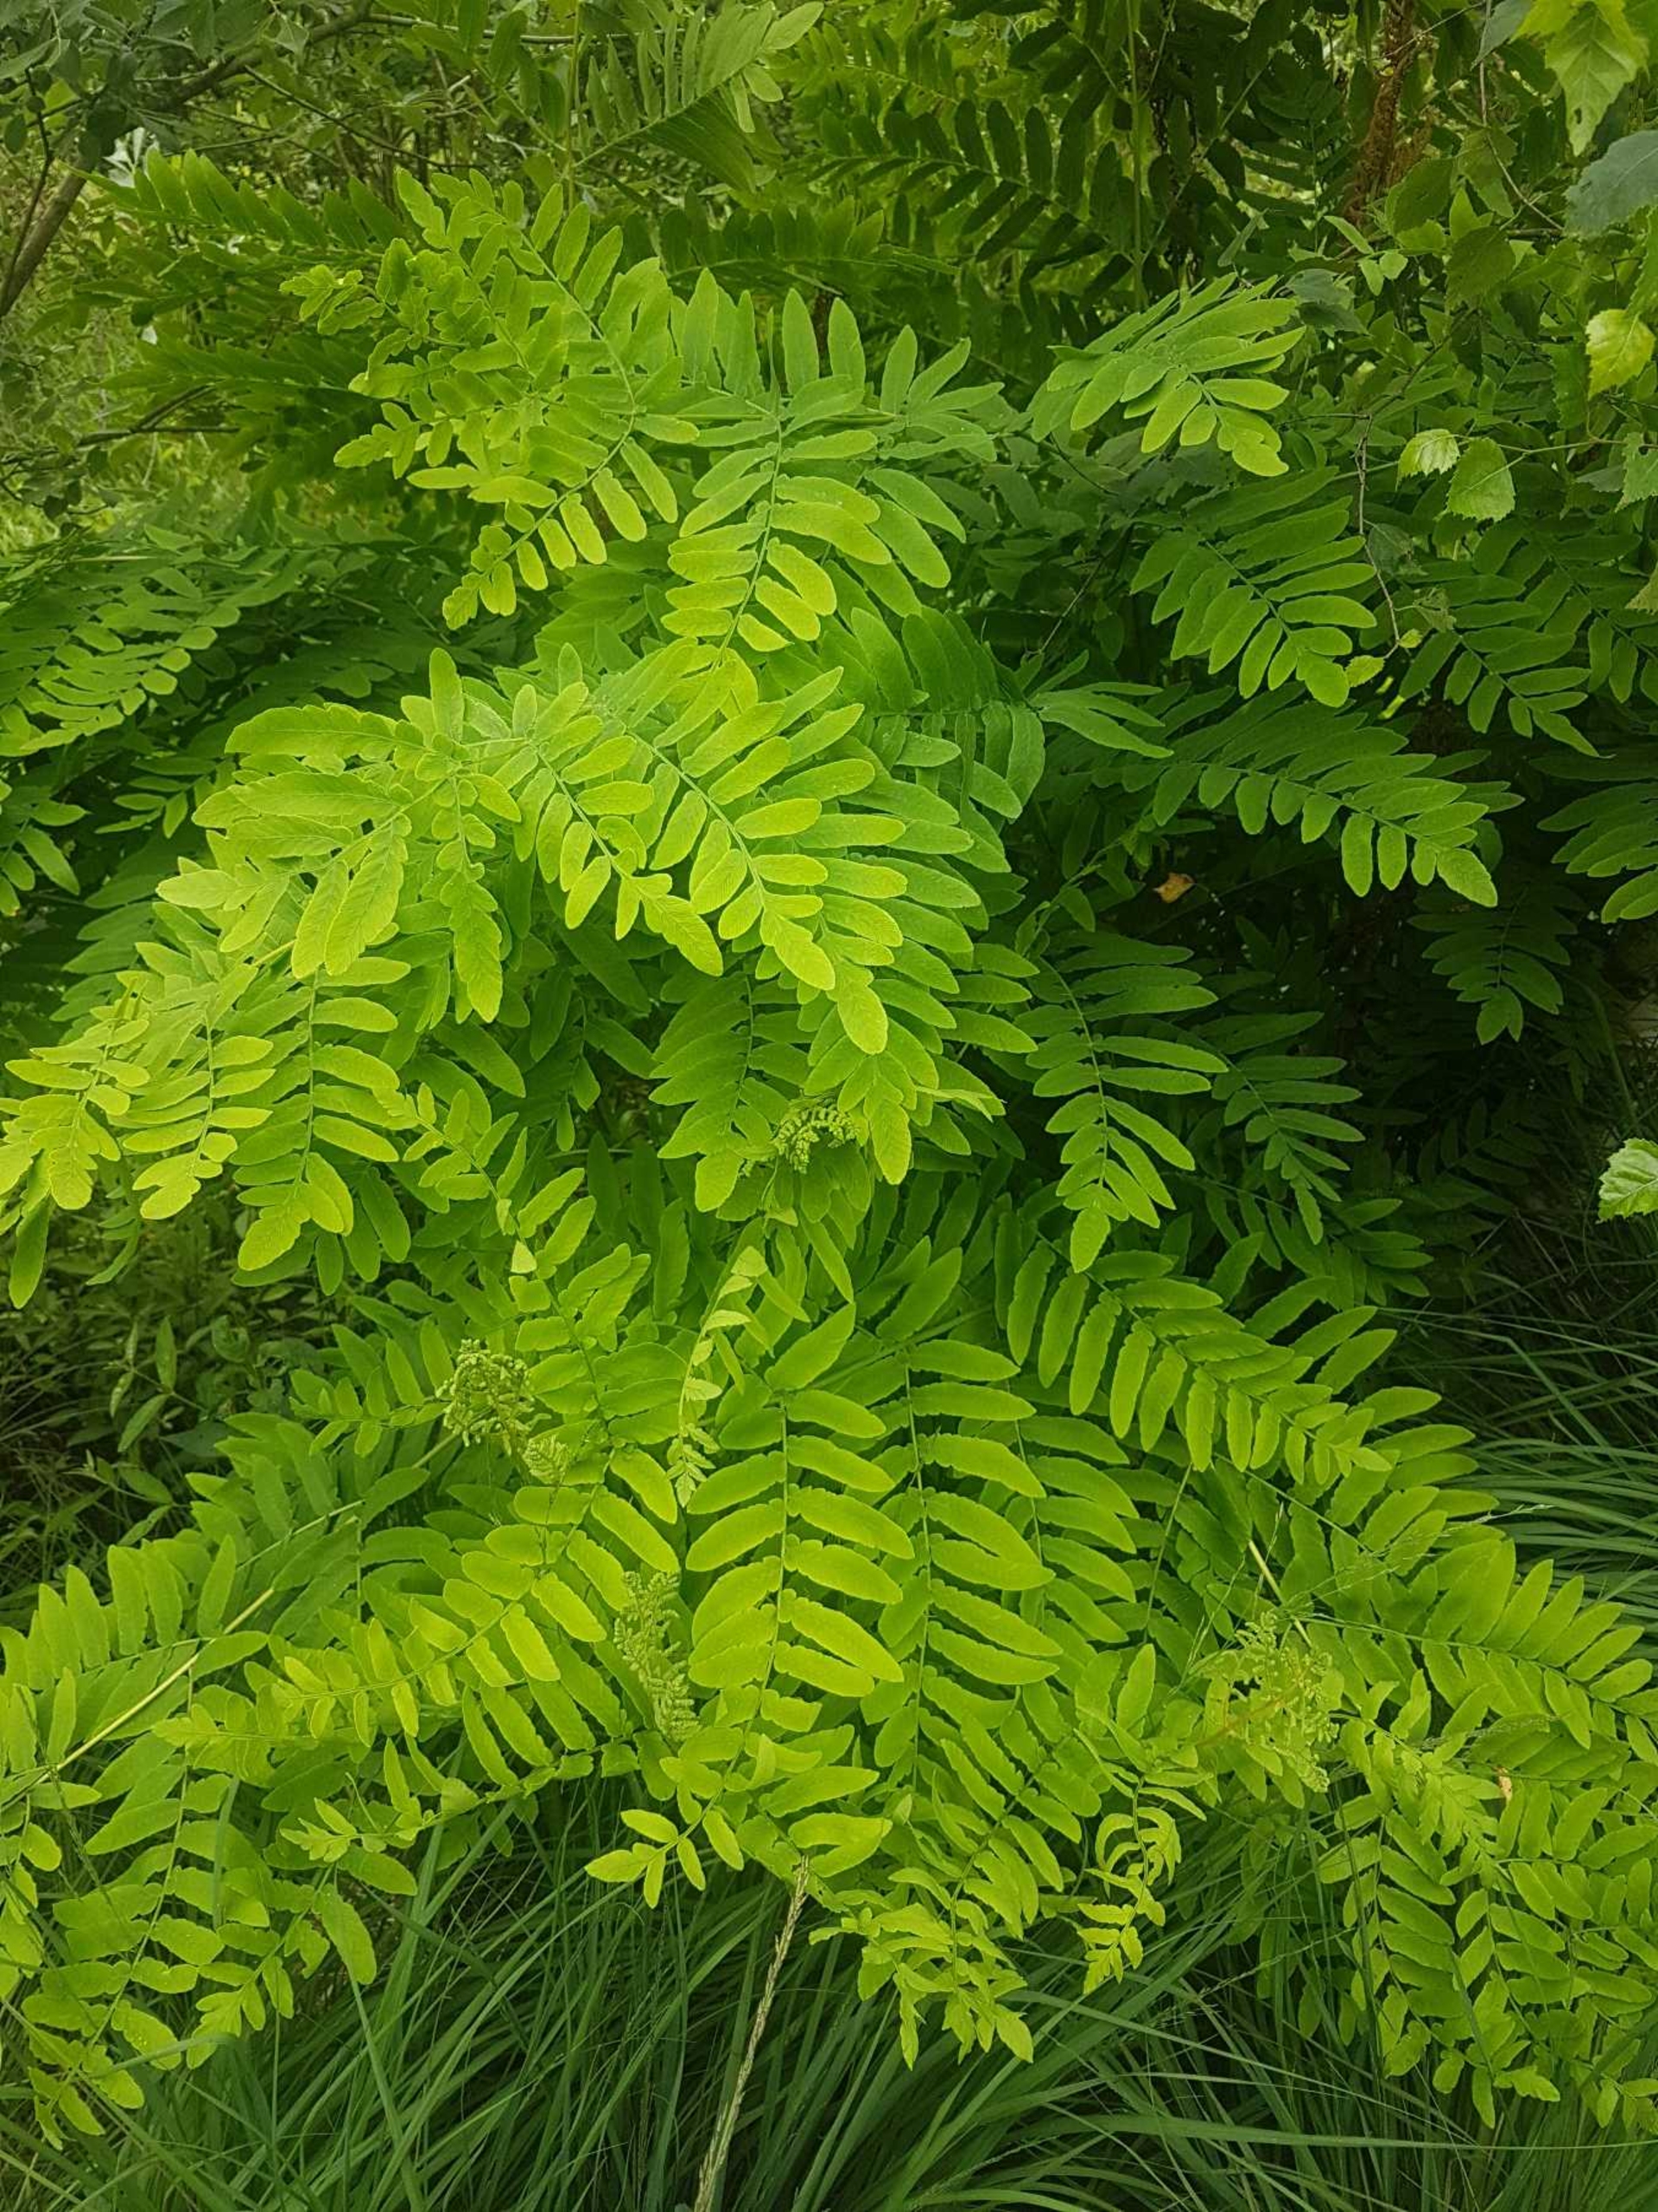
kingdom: Plantae
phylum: Tracheophyta
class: Polypodiopsida
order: Osmundales
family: Osmundaceae
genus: Osmunda
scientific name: Osmunda regalis
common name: Kongebregne
